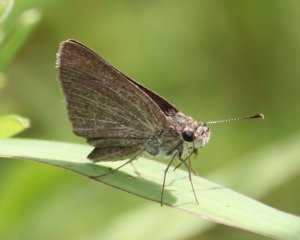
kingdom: Animalia
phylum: Arthropoda
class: Insecta
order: Lepidoptera
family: Hesperiidae
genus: Nastra
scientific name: Nastra lherminier
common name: Swarthy Skipper
